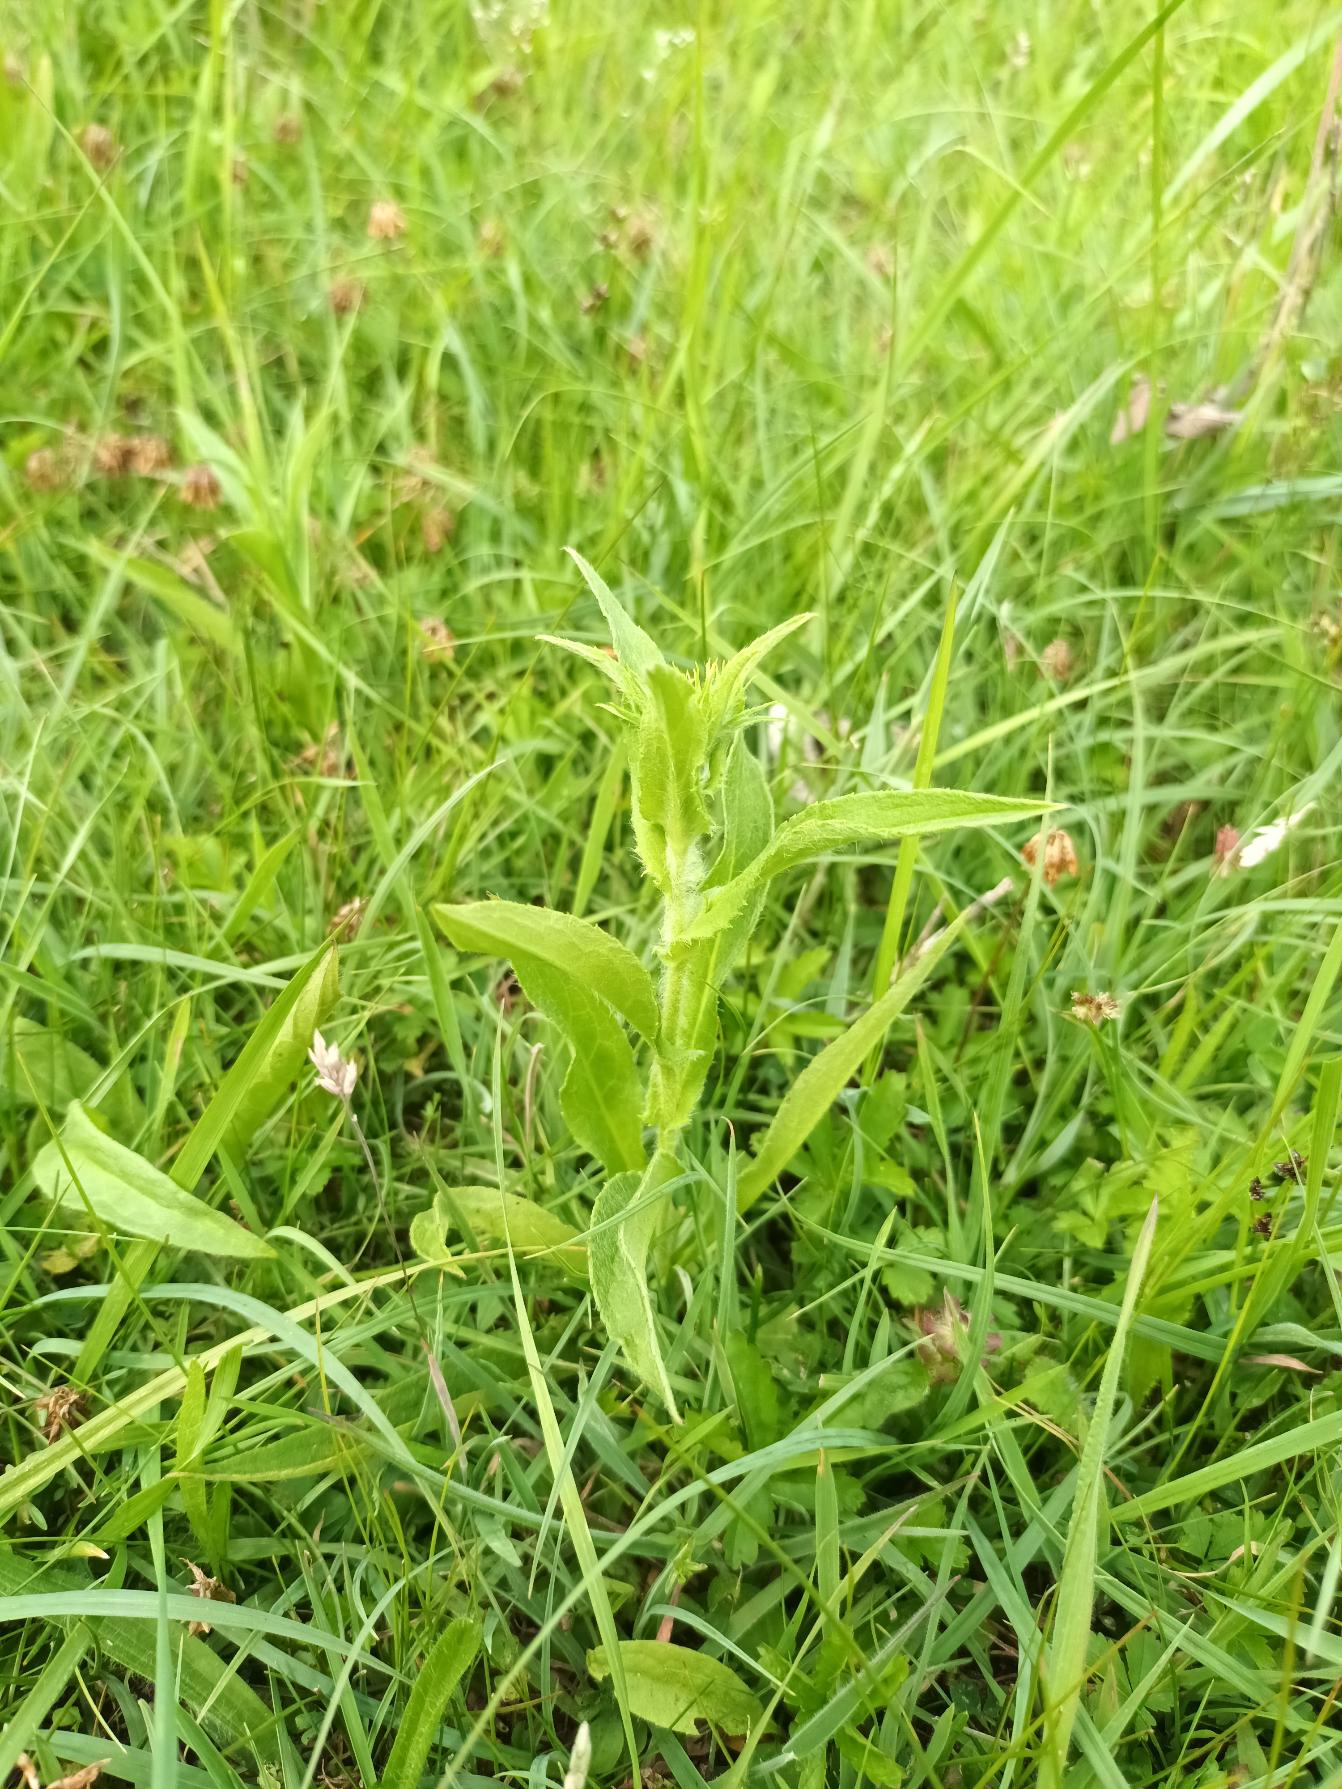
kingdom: Plantae
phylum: Tracheophyta
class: Magnoliopsida
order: Asterales
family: Asteraceae
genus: Pentanema
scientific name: Pentanema britannicum
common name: Soløje-alant
